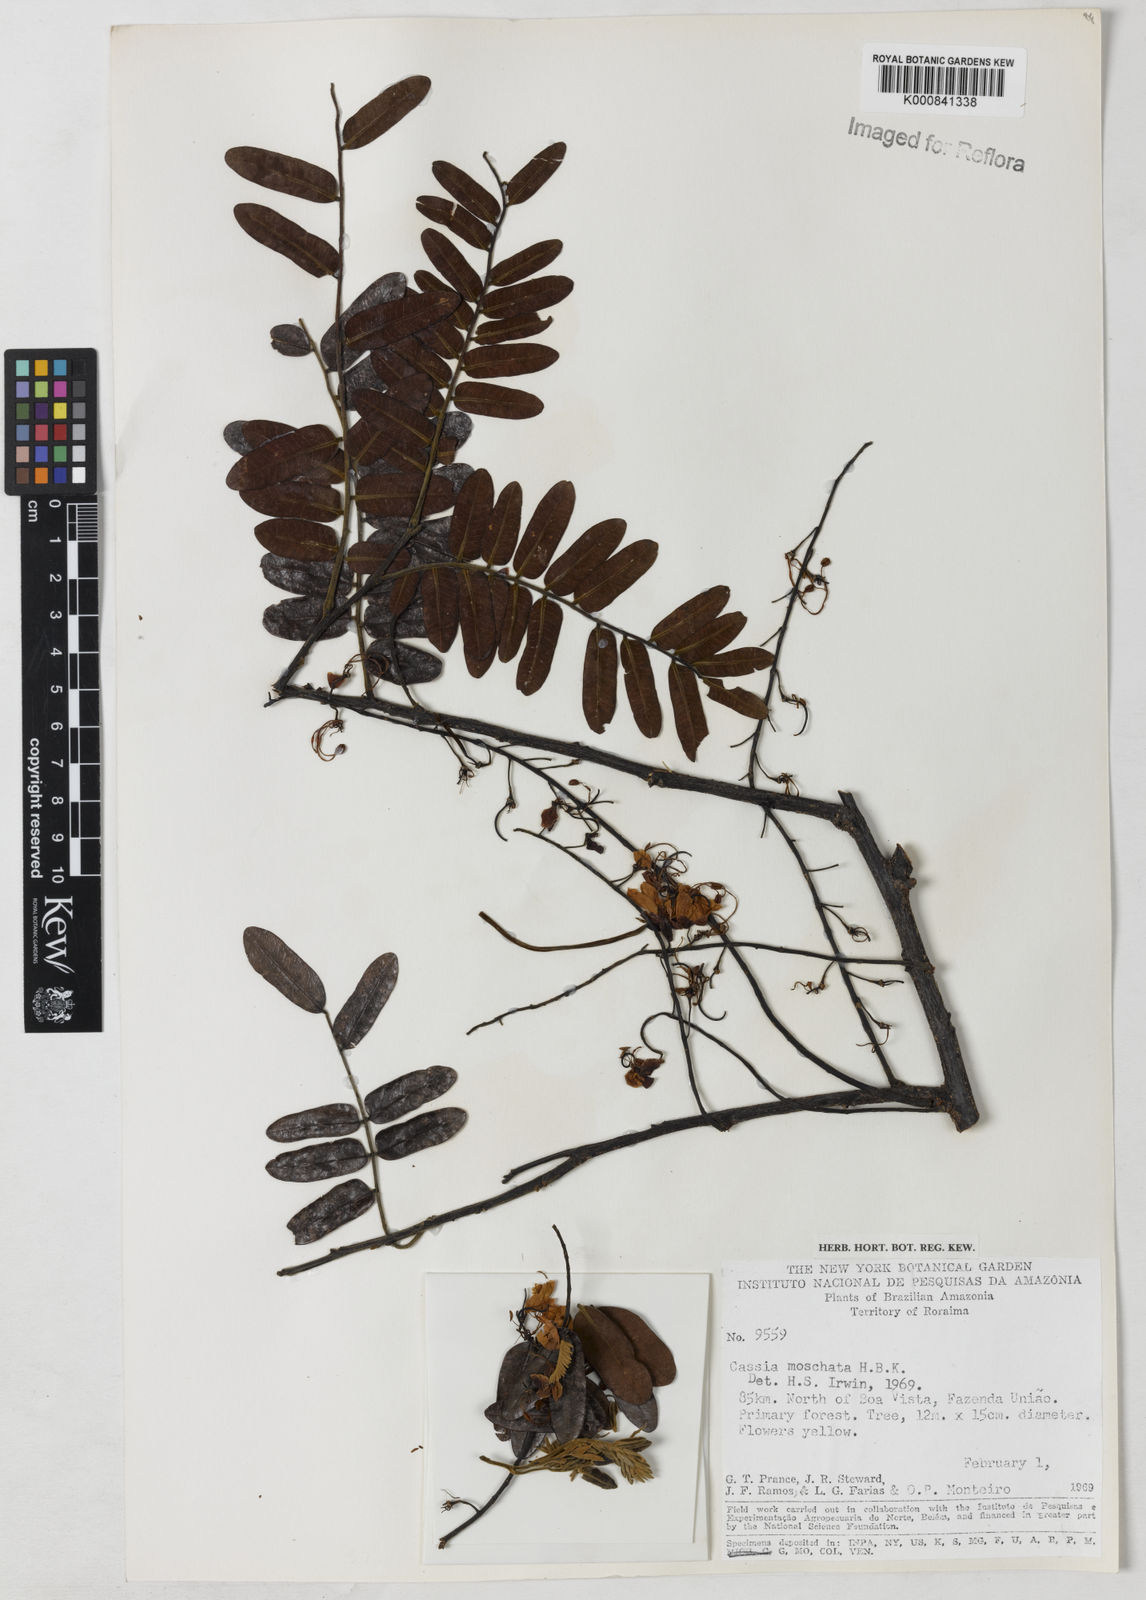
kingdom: Plantae
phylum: Tracheophyta
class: Magnoliopsida
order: Fabales
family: Fabaceae
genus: Cassia
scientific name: Cassia moschata
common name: Bronze shower tree
